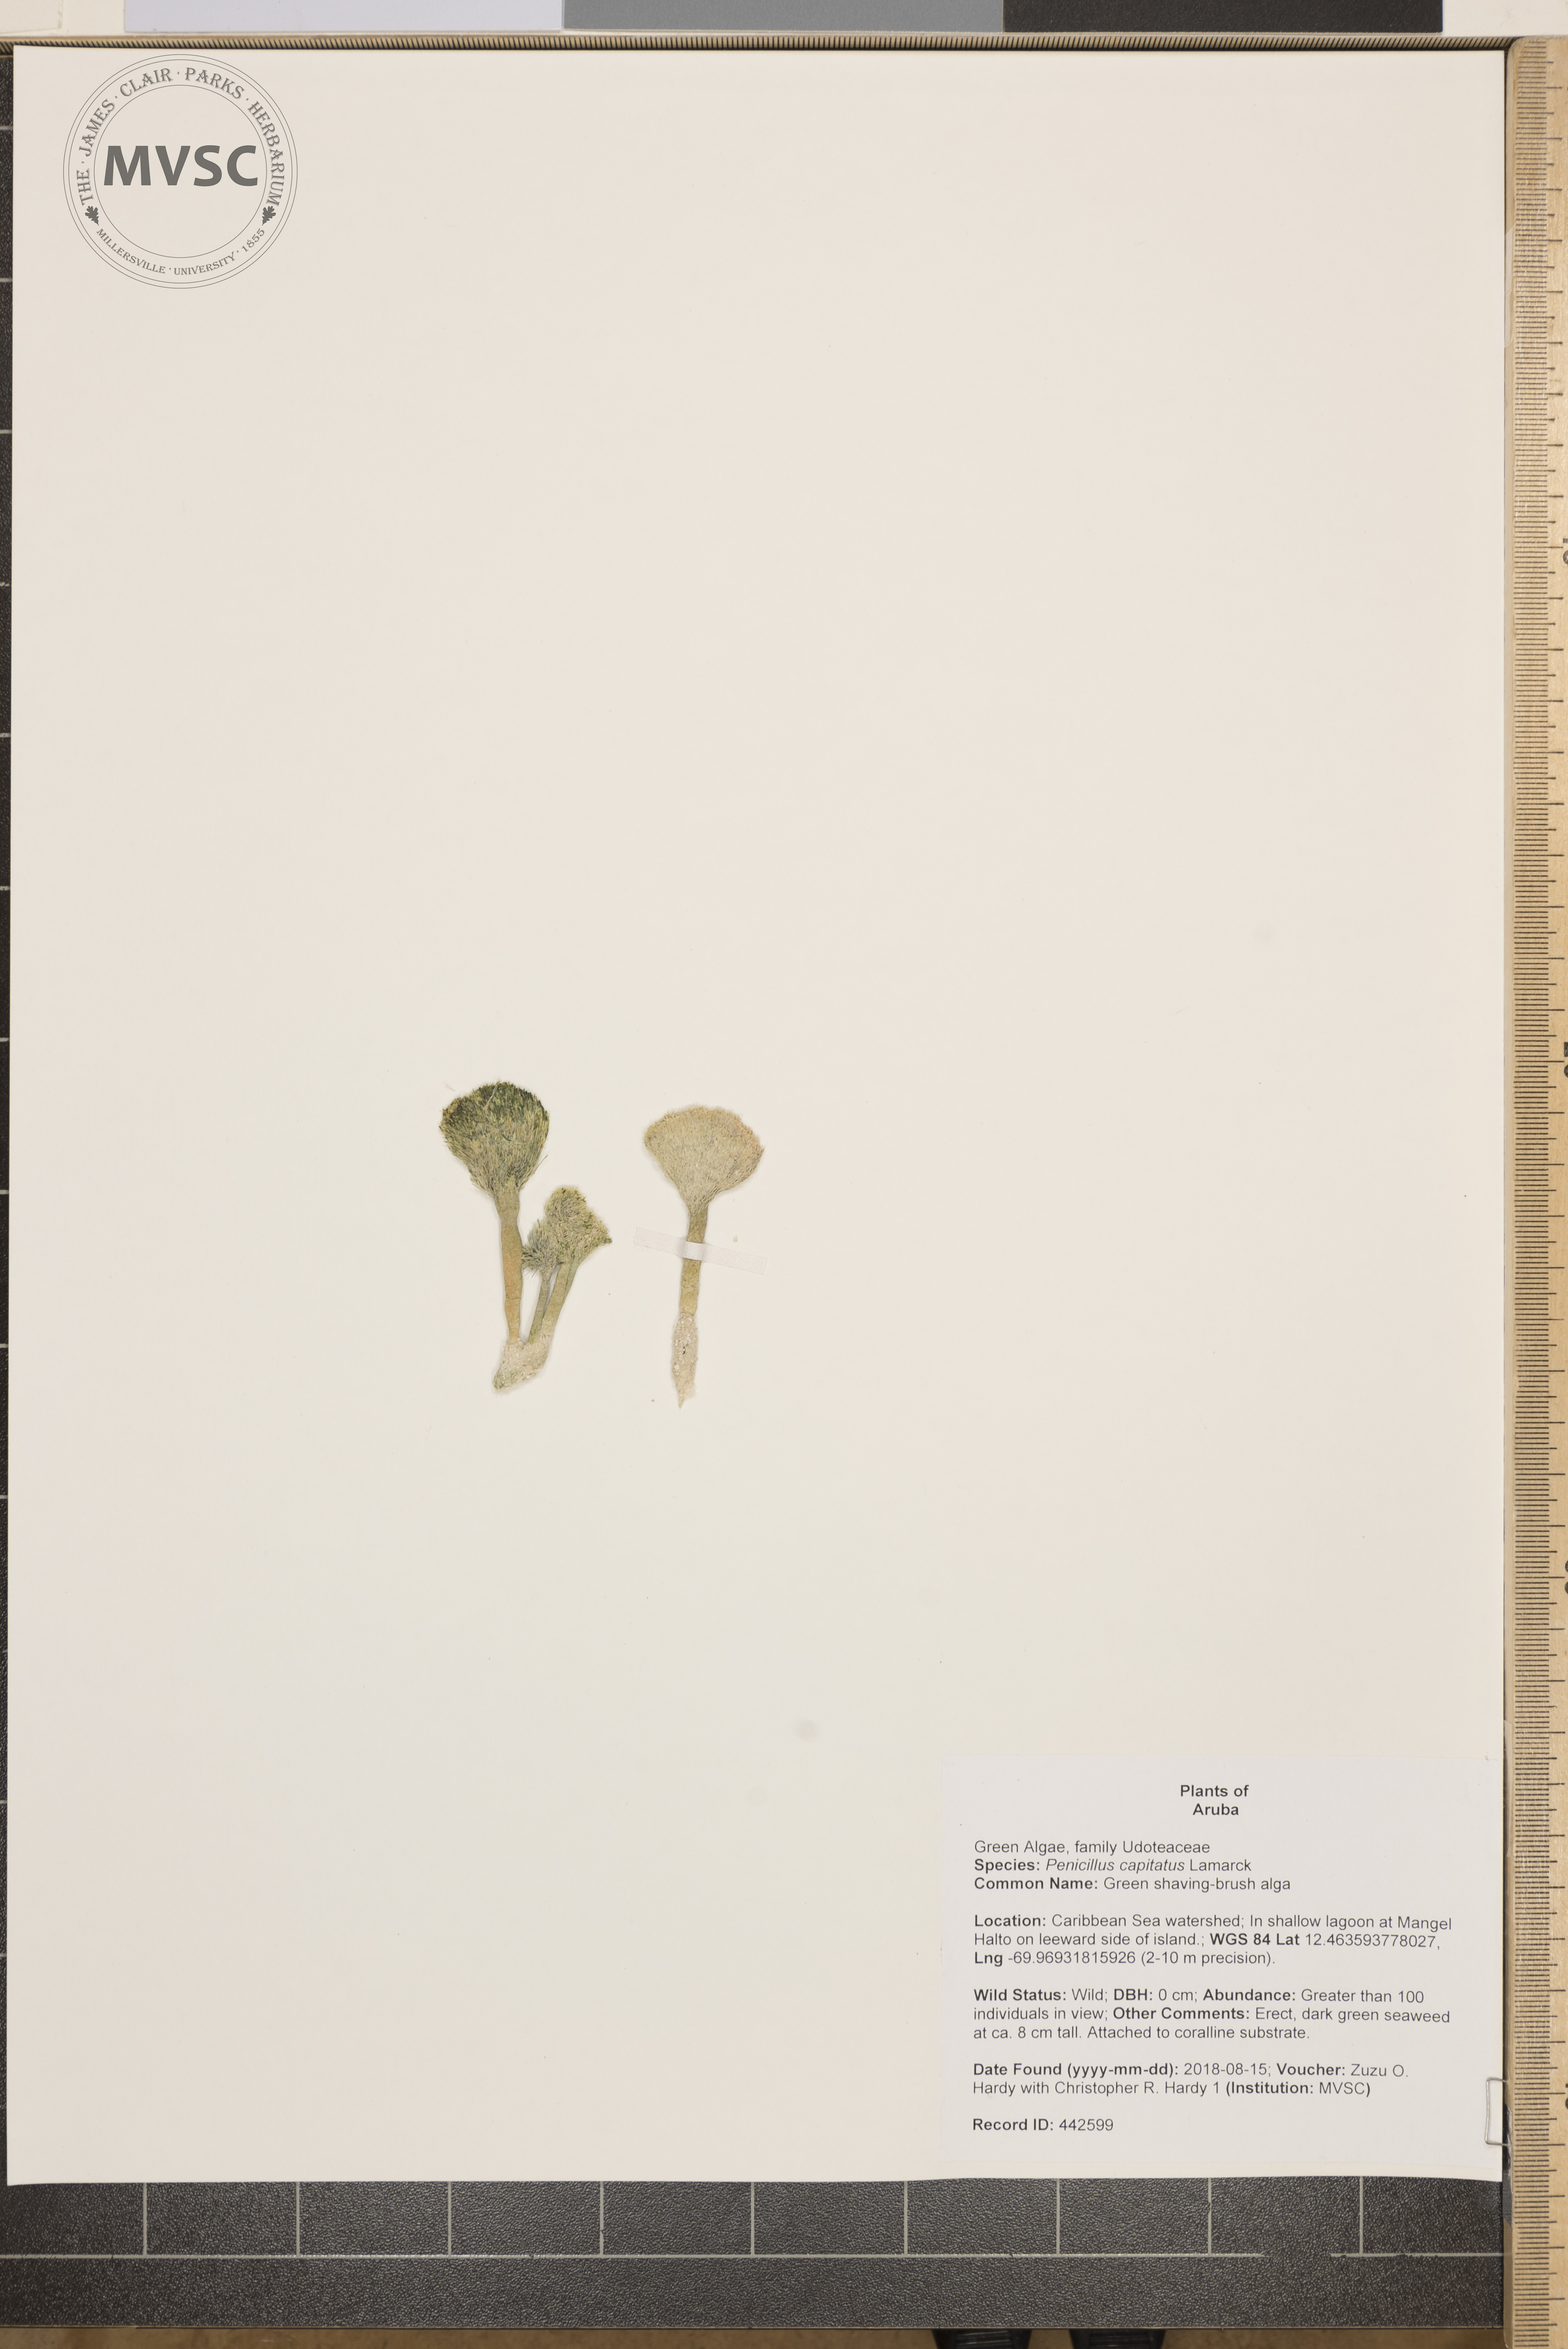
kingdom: Plantae
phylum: Chlorophyta
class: Ulvophyceae
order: Bryopsidales
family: Udoteaceae
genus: Penicillus
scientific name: Penicillus capitatus
